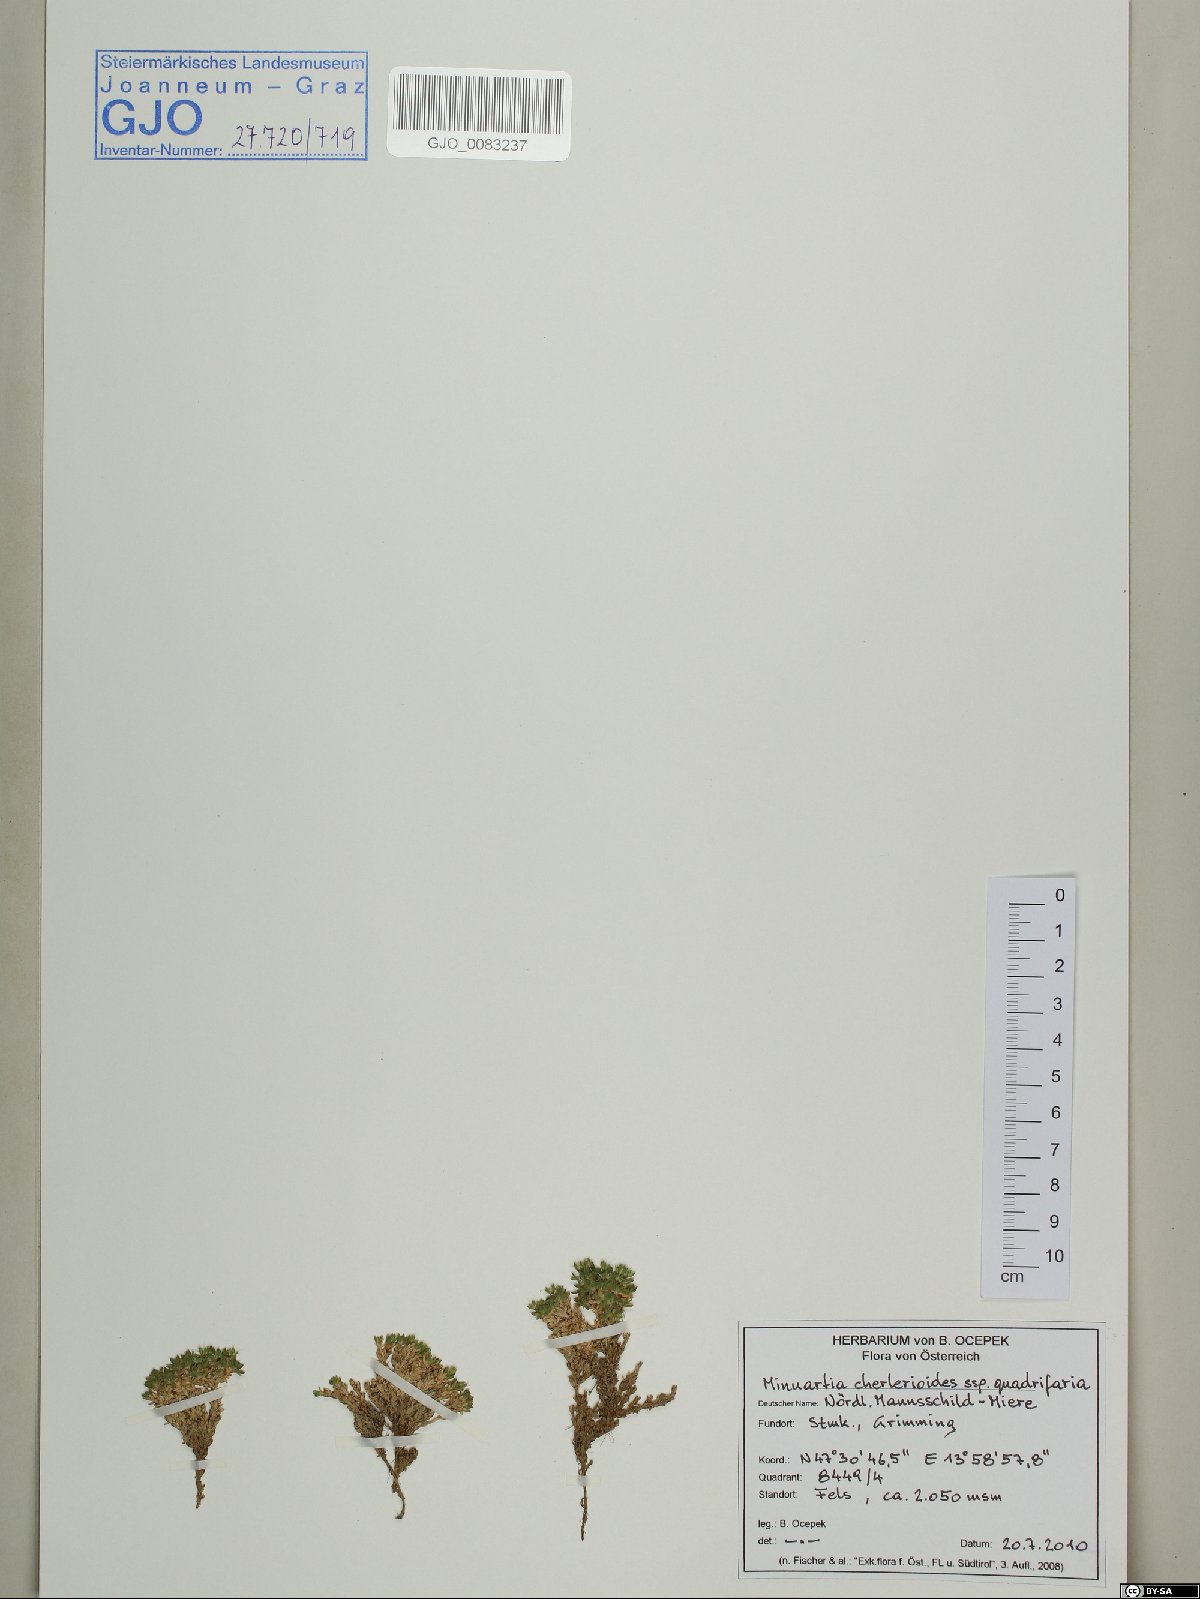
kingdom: Plantae
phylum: Tracheophyta
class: Magnoliopsida
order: Caryophyllales
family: Caryophyllaceae
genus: Facchinia
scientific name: Facchinia cherlerioides
